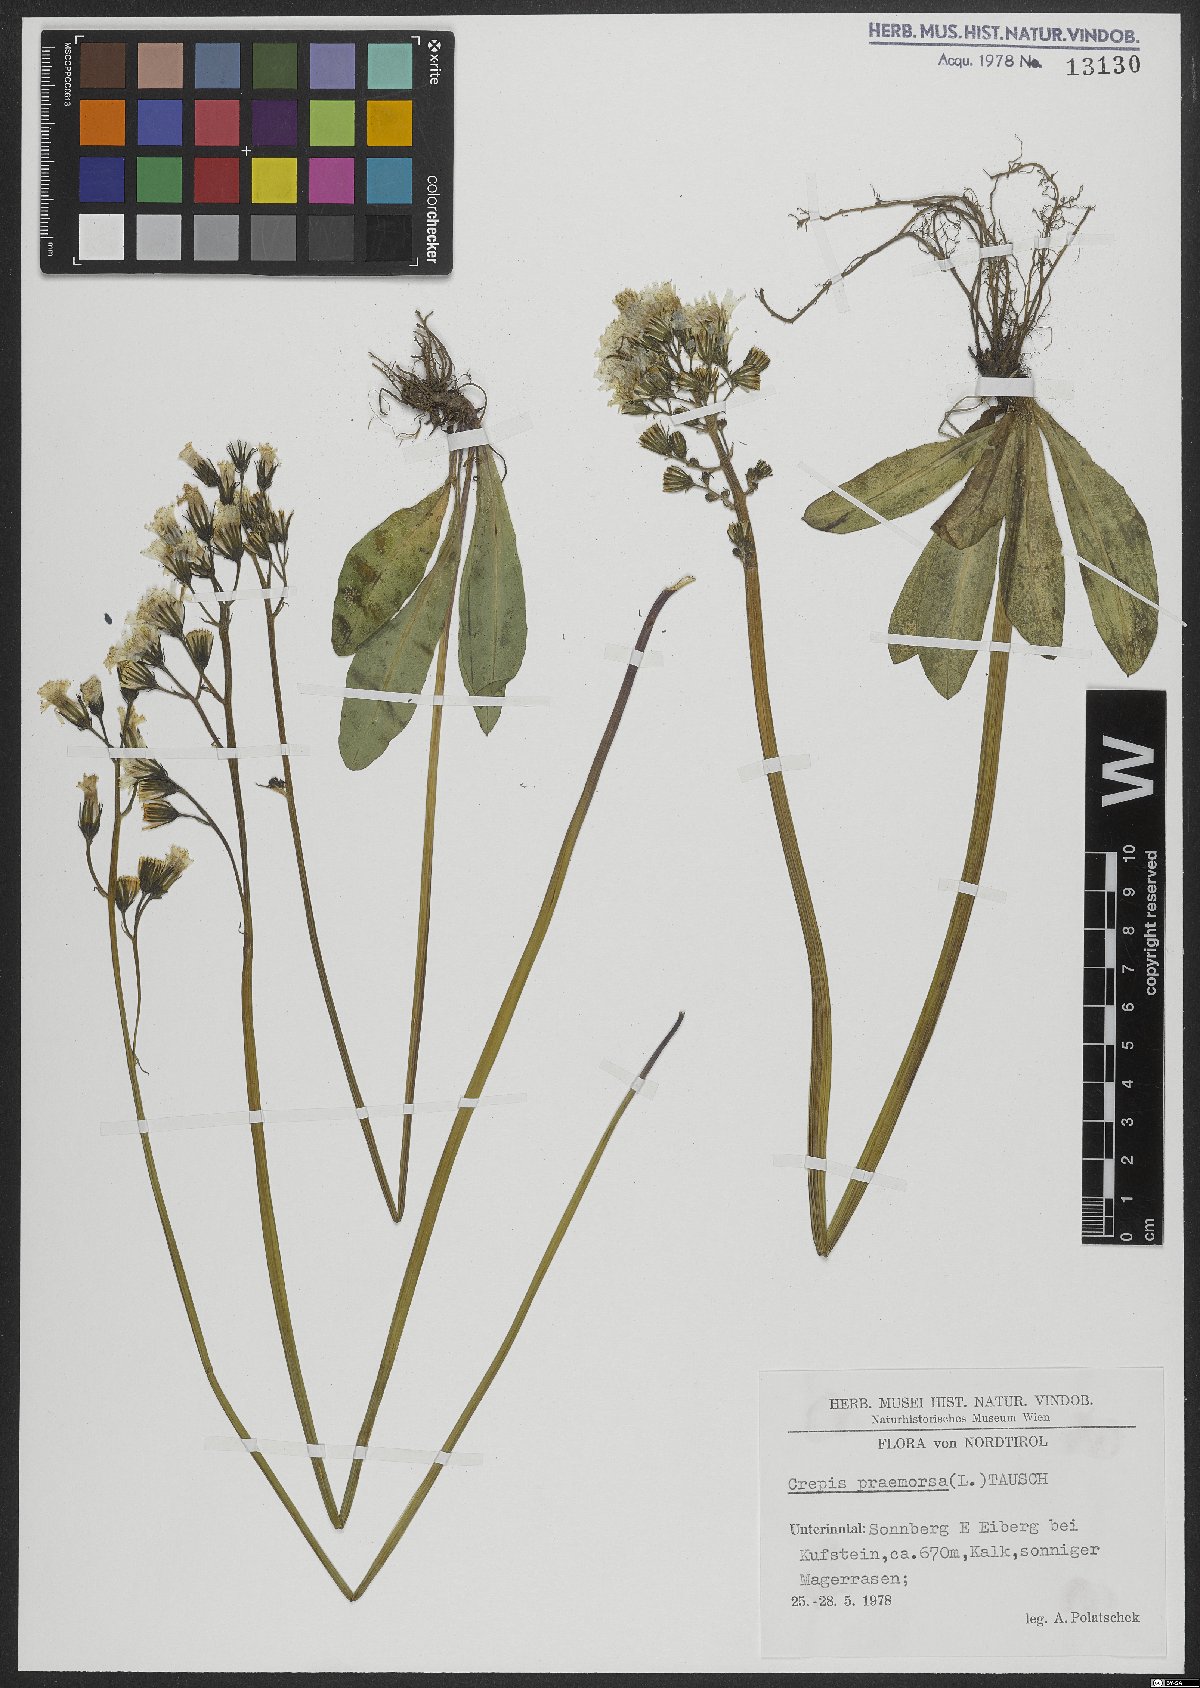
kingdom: Plantae
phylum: Tracheophyta
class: Magnoliopsida
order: Asterales
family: Asteraceae
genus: Crepis
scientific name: Crepis praemorsa
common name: Leafless hawk's-beard
